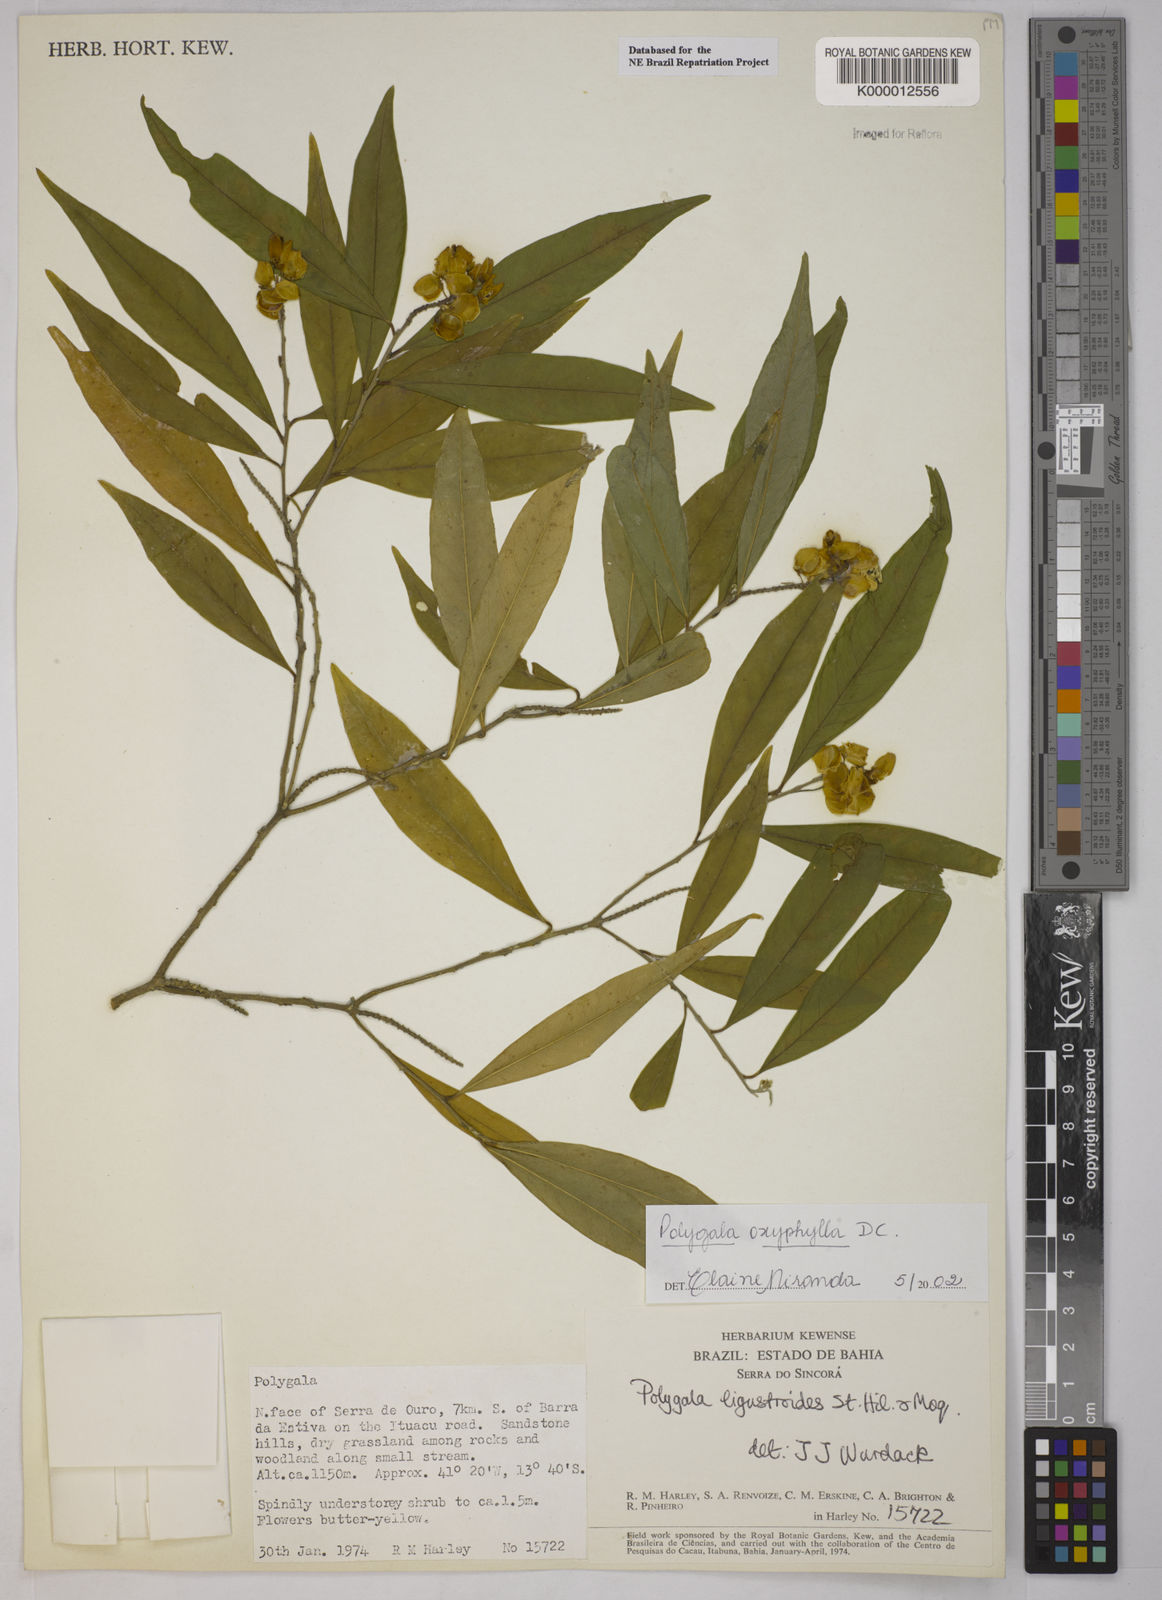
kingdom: Plantae
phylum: Tracheophyta
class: Magnoliopsida
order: Fabales
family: Polygalaceae
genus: Caamembeca
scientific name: Caamembeca oxyphylla
